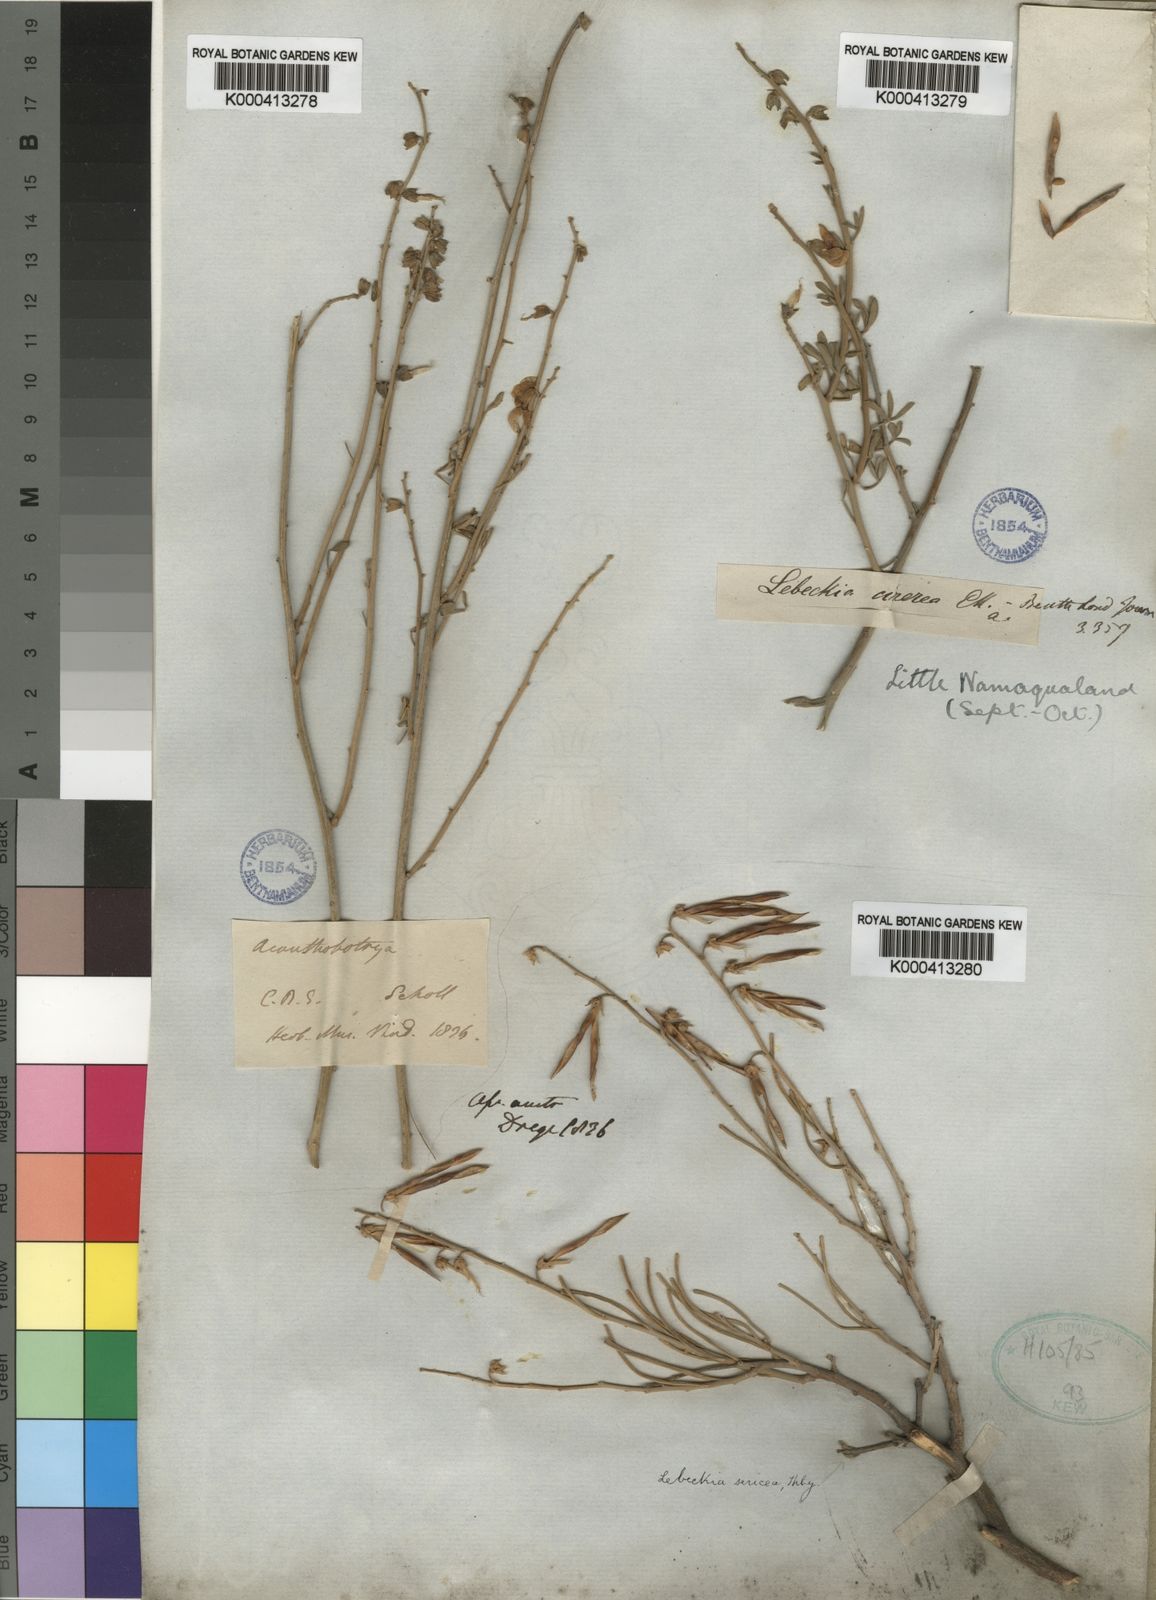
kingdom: Plantae
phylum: Tracheophyta
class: Magnoliopsida
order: Fabales
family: Fabaceae
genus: Calobota
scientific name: Calobota cinerea
